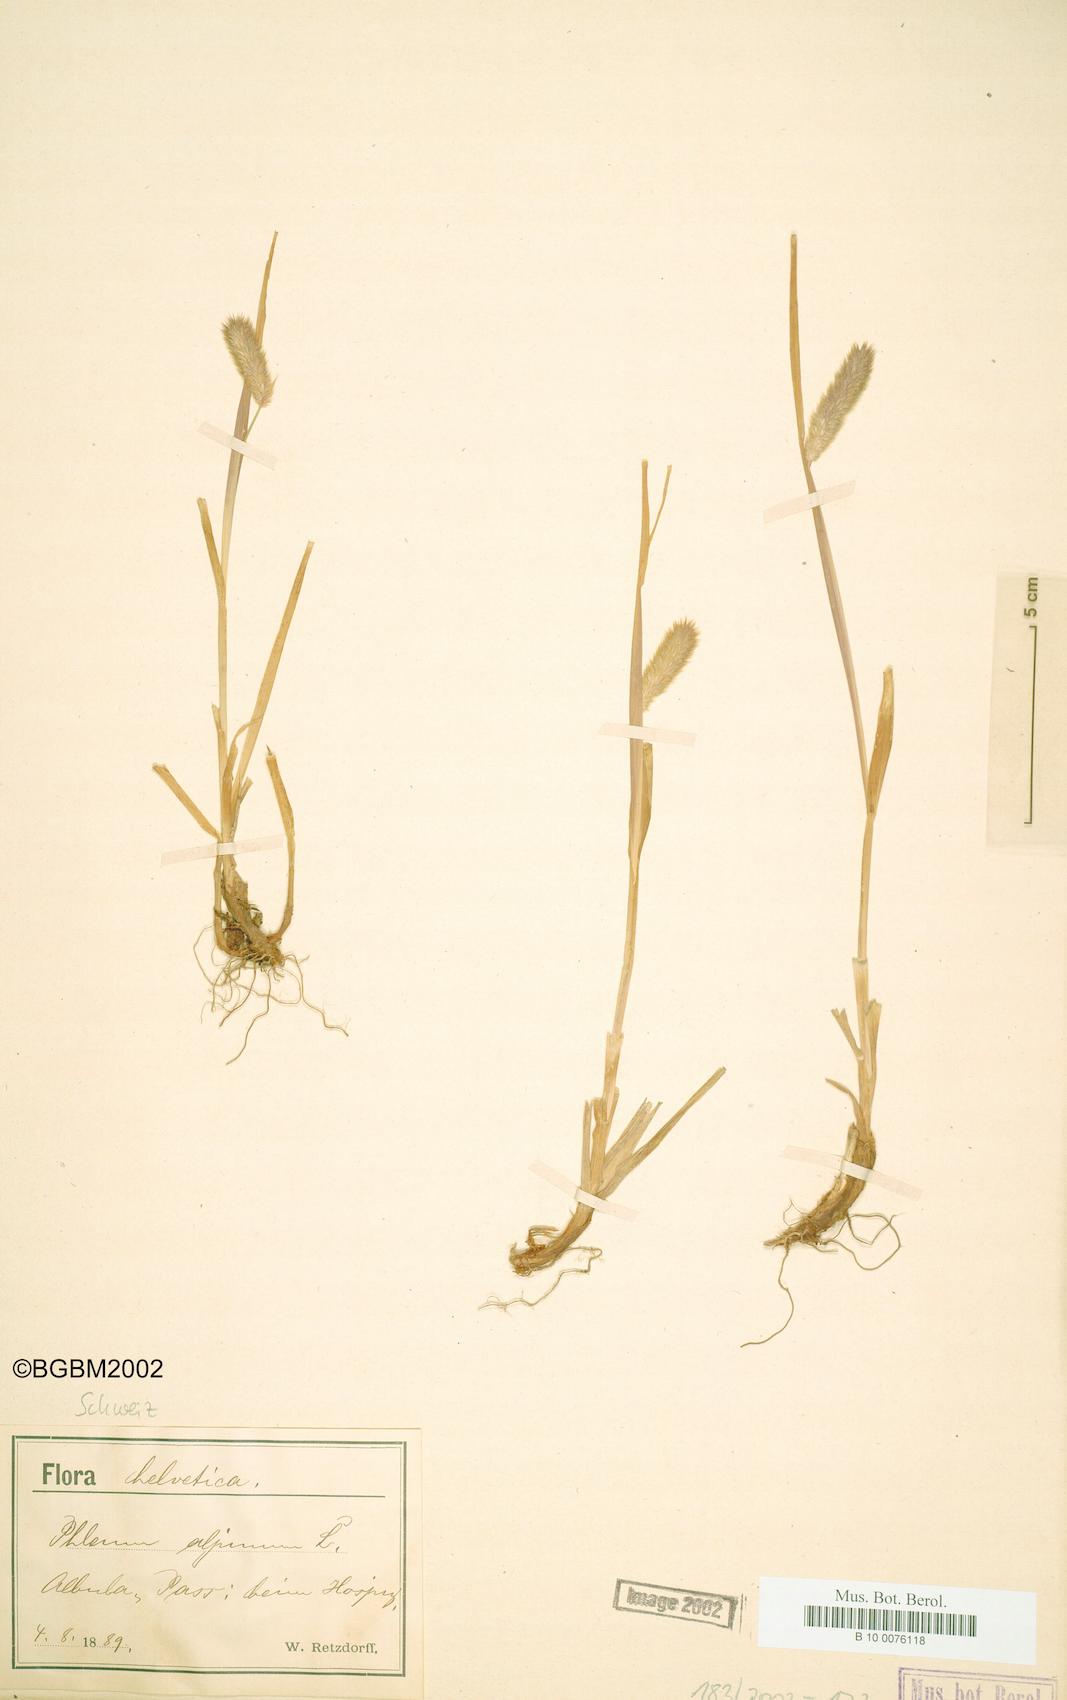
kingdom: Plantae
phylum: Tracheophyta
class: Liliopsida
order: Poales
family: Poaceae
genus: Phleum
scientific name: Phleum alpinum
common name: Alpine cat's-tail
